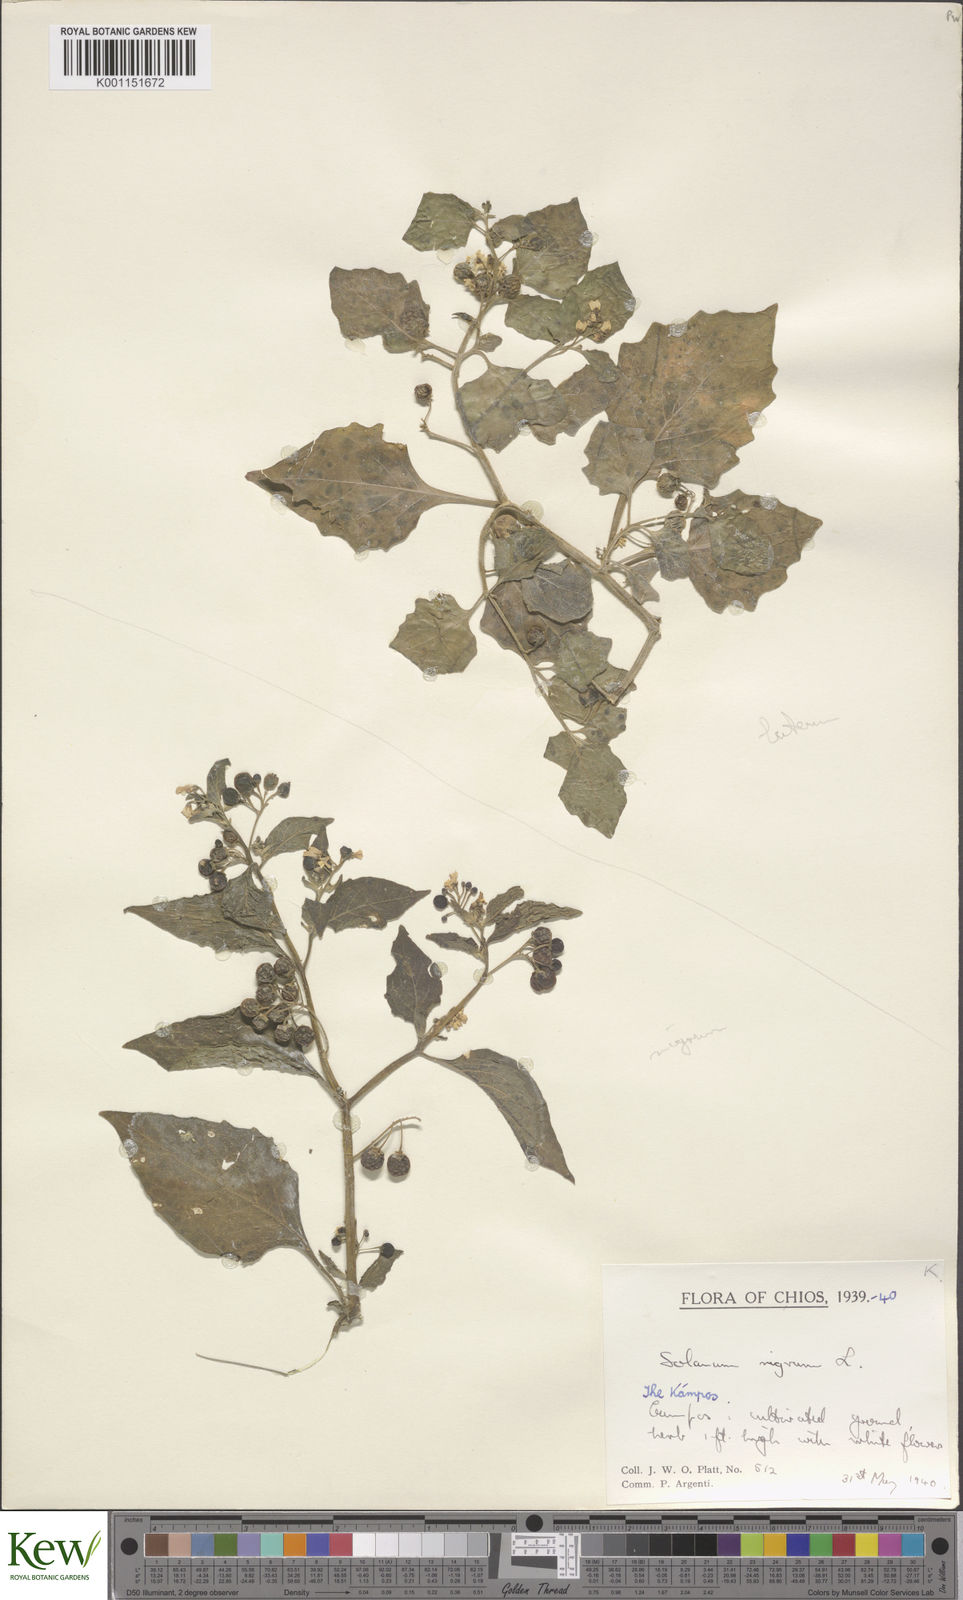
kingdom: Plantae
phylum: Tracheophyta
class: Magnoliopsida
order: Solanales
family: Solanaceae
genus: Solanum
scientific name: Solanum nigrum
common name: Black nightshade
